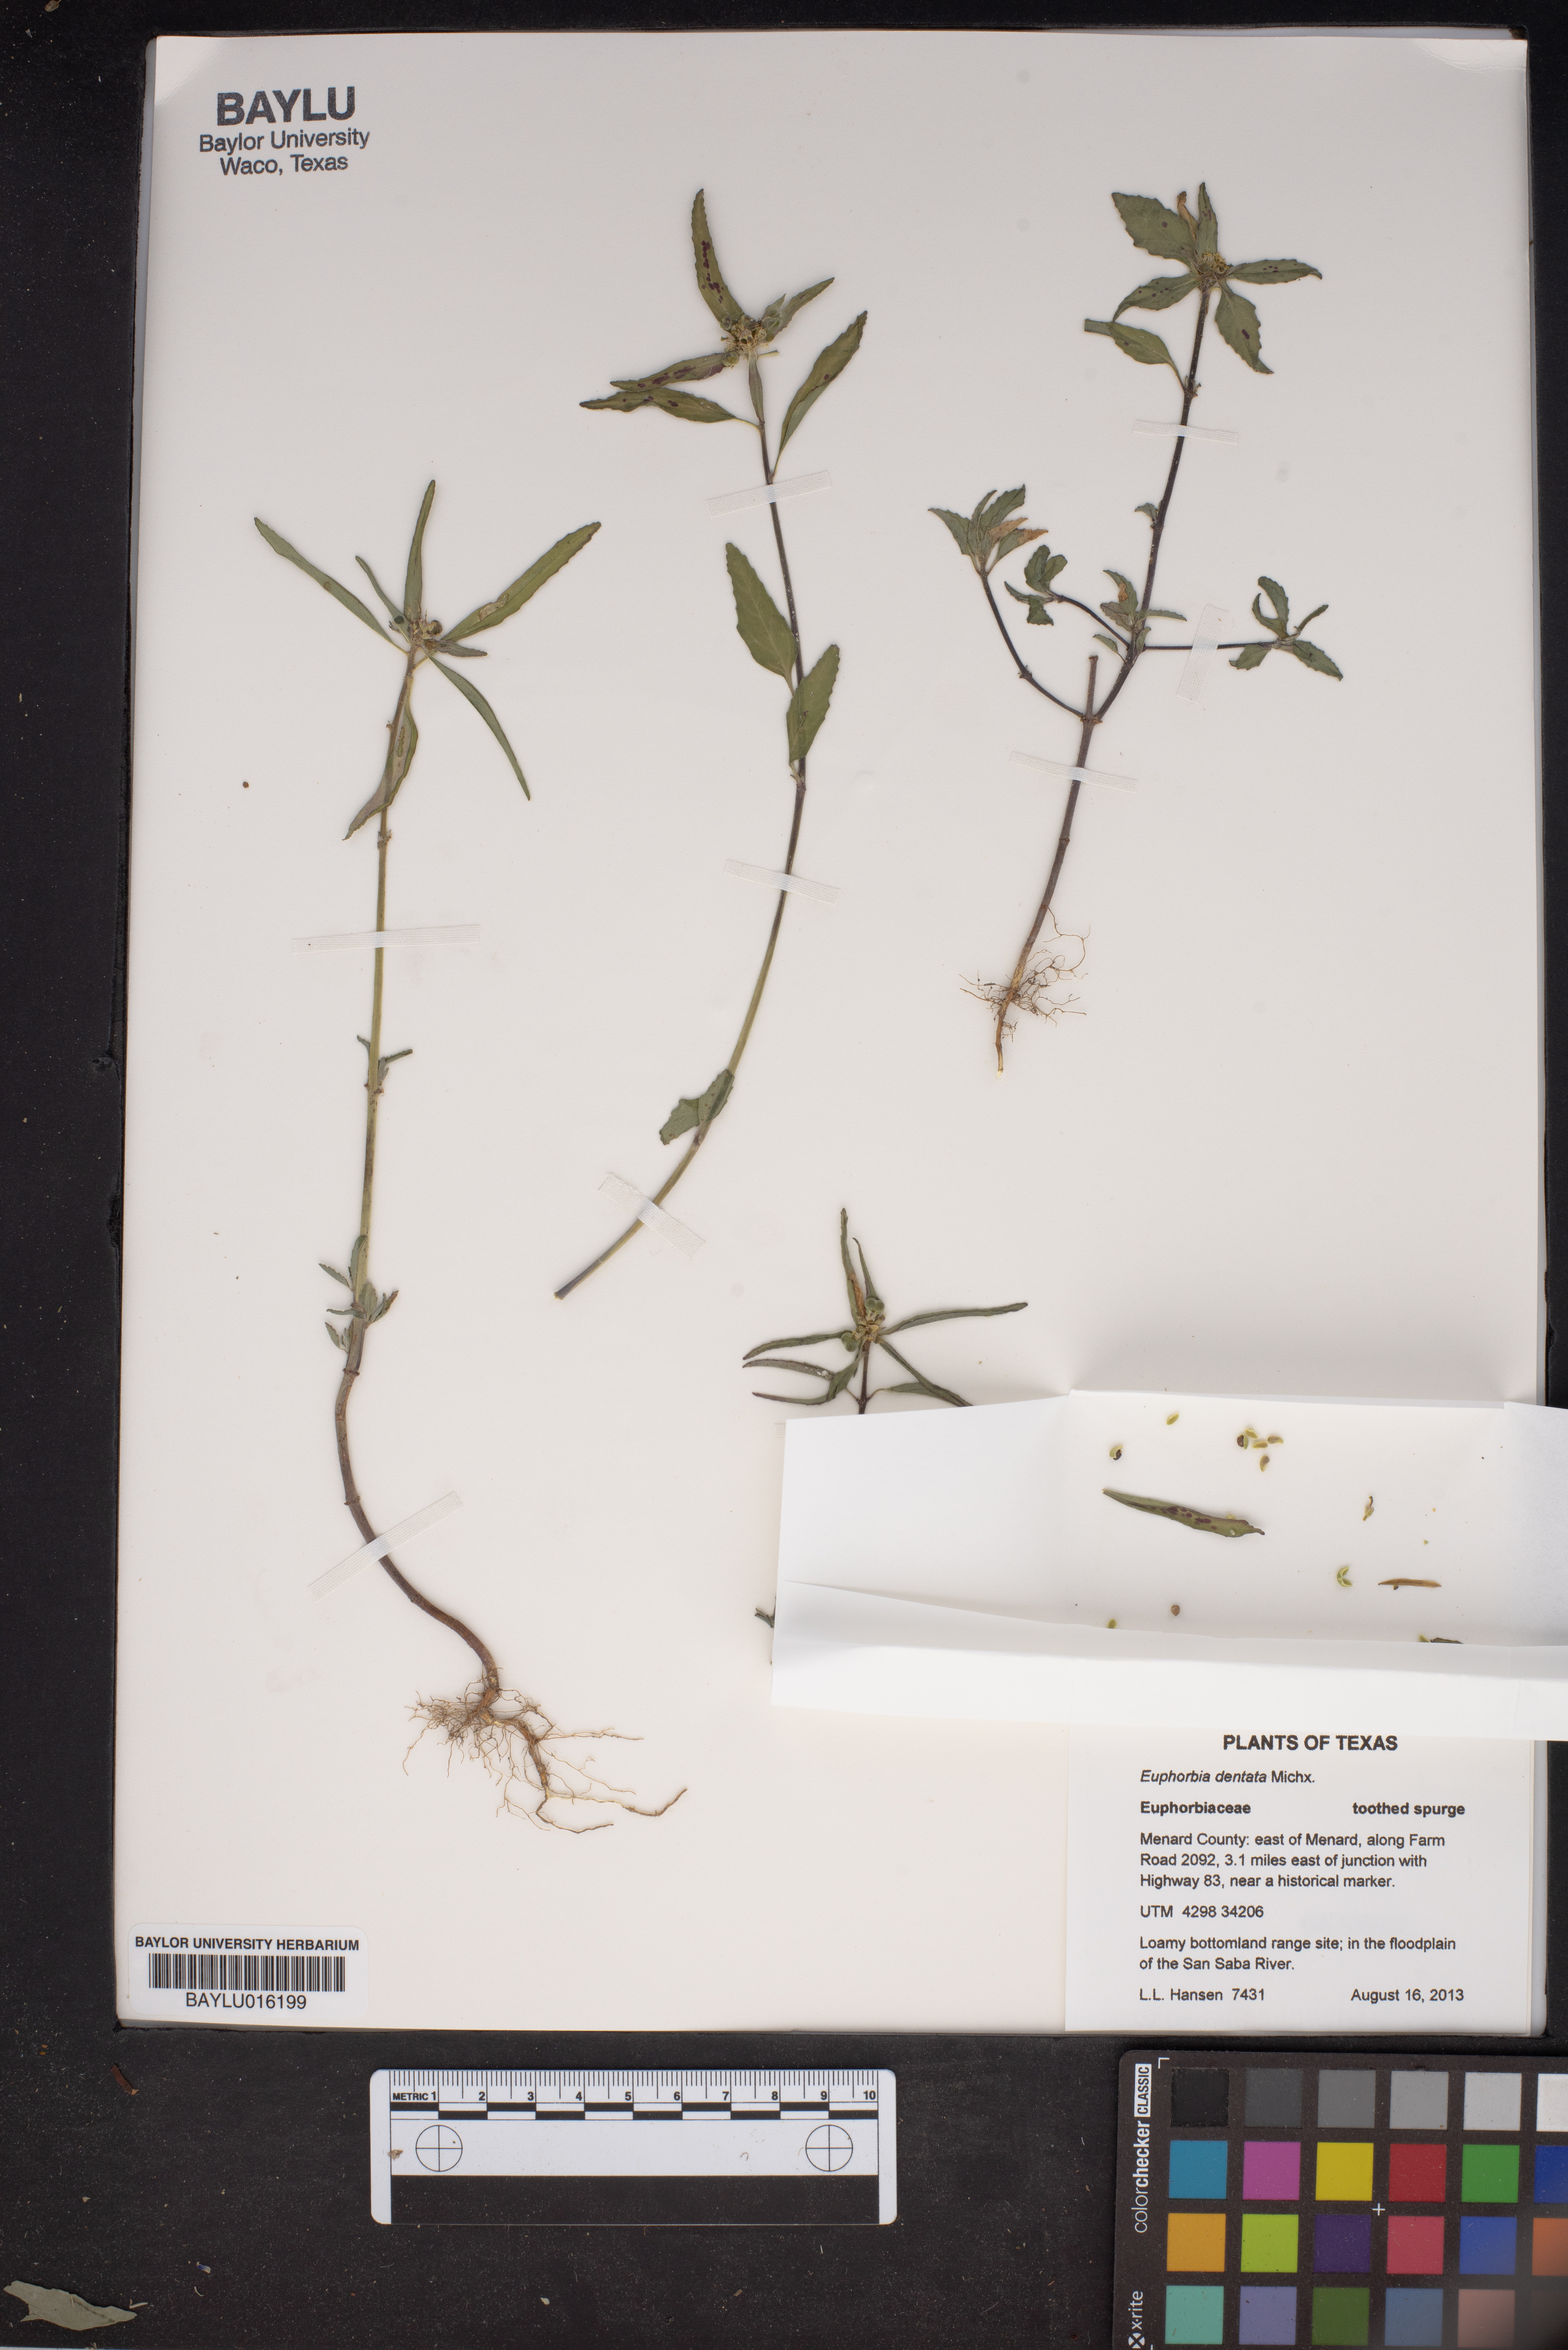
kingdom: Plantae
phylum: Tracheophyta
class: Magnoliopsida
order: Malpighiales
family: Euphorbiaceae
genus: Euphorbia
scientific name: Euphorbia dentata
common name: Dentate spurge
